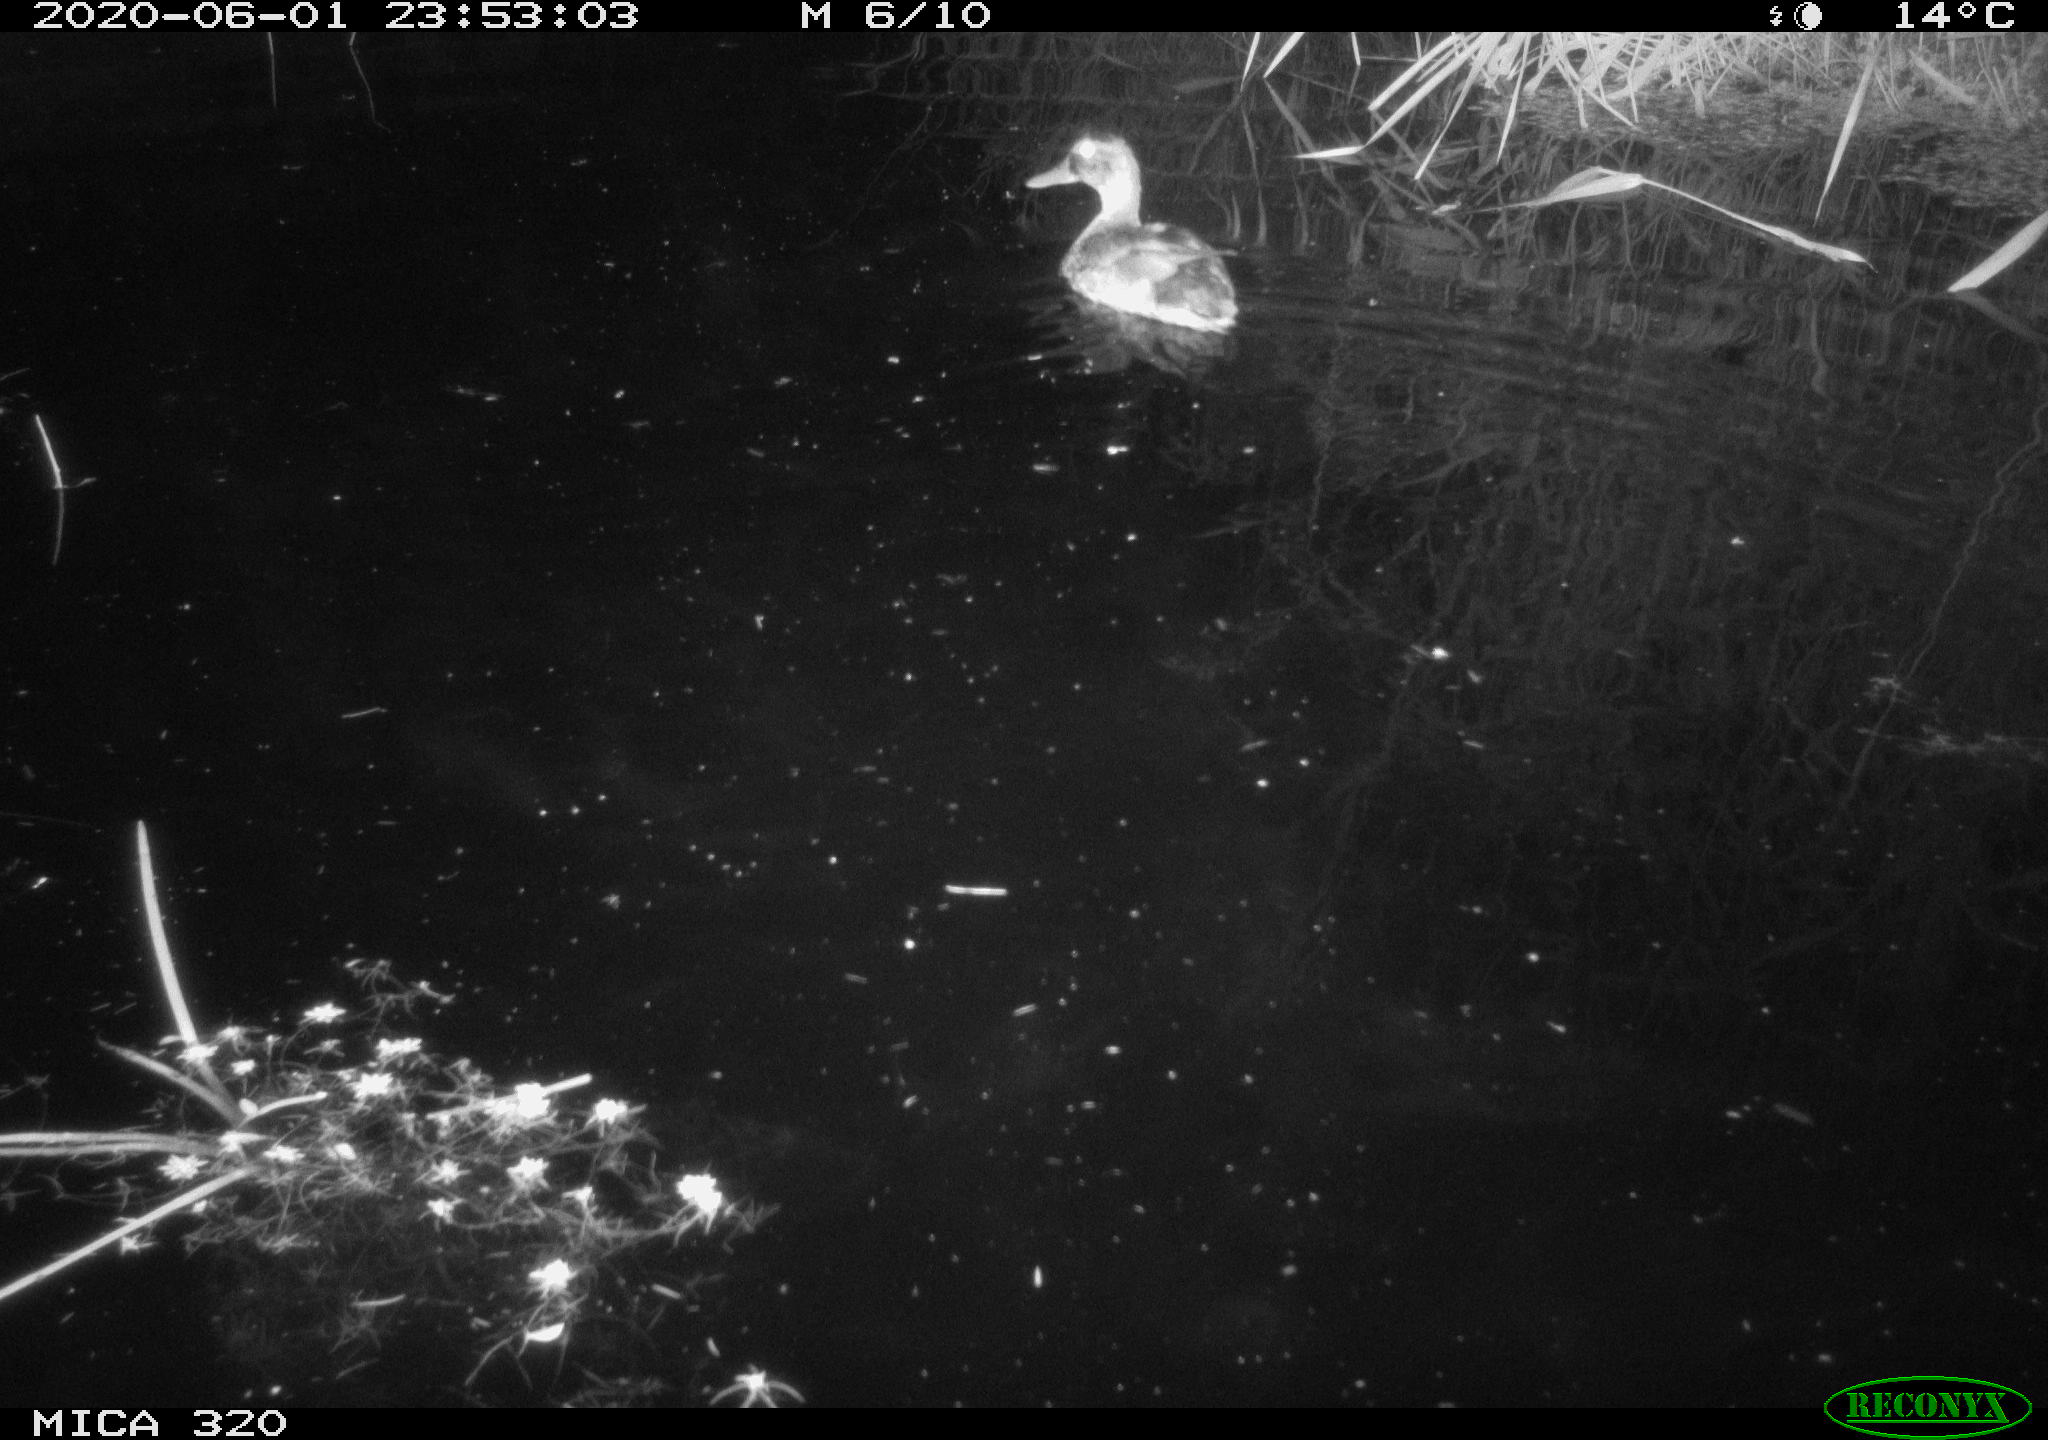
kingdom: Animalia
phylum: Chordata
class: Aves
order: Anseriformes
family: Anatidae
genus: Anas
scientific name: Anas platyrhynchos
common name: Mallard
